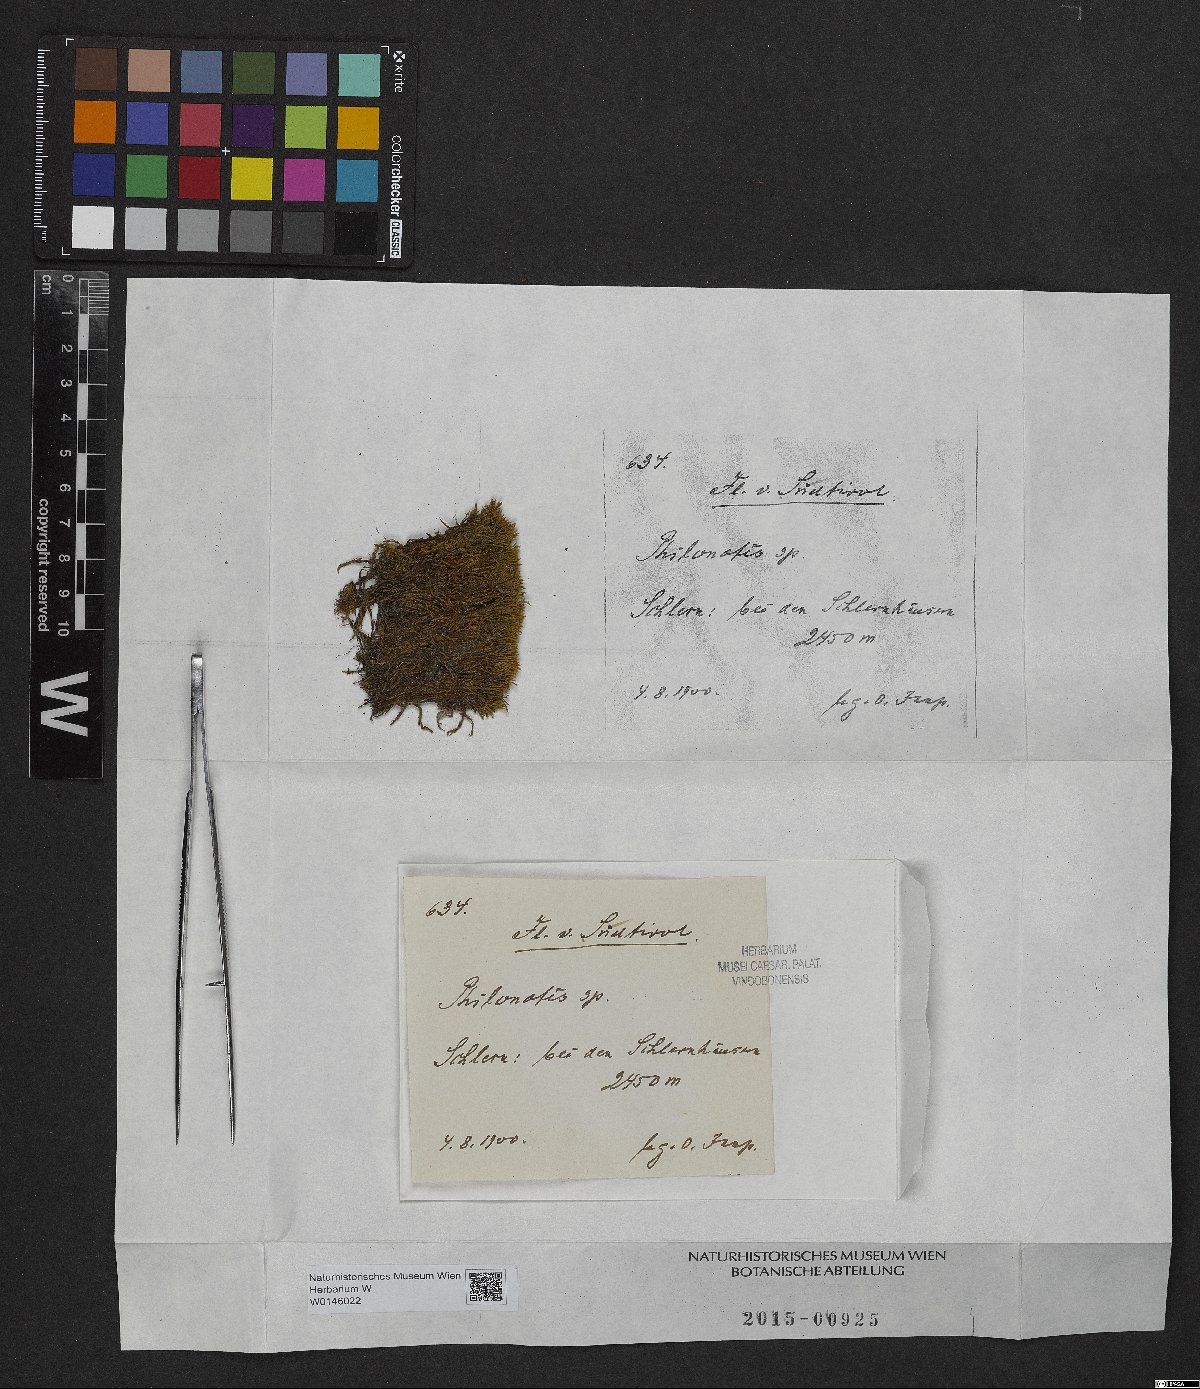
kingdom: Plantae
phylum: Bryophyta
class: Bryopsida
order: Bartramiales
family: Bartramiaceae
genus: Philonotis
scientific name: Philonotis
